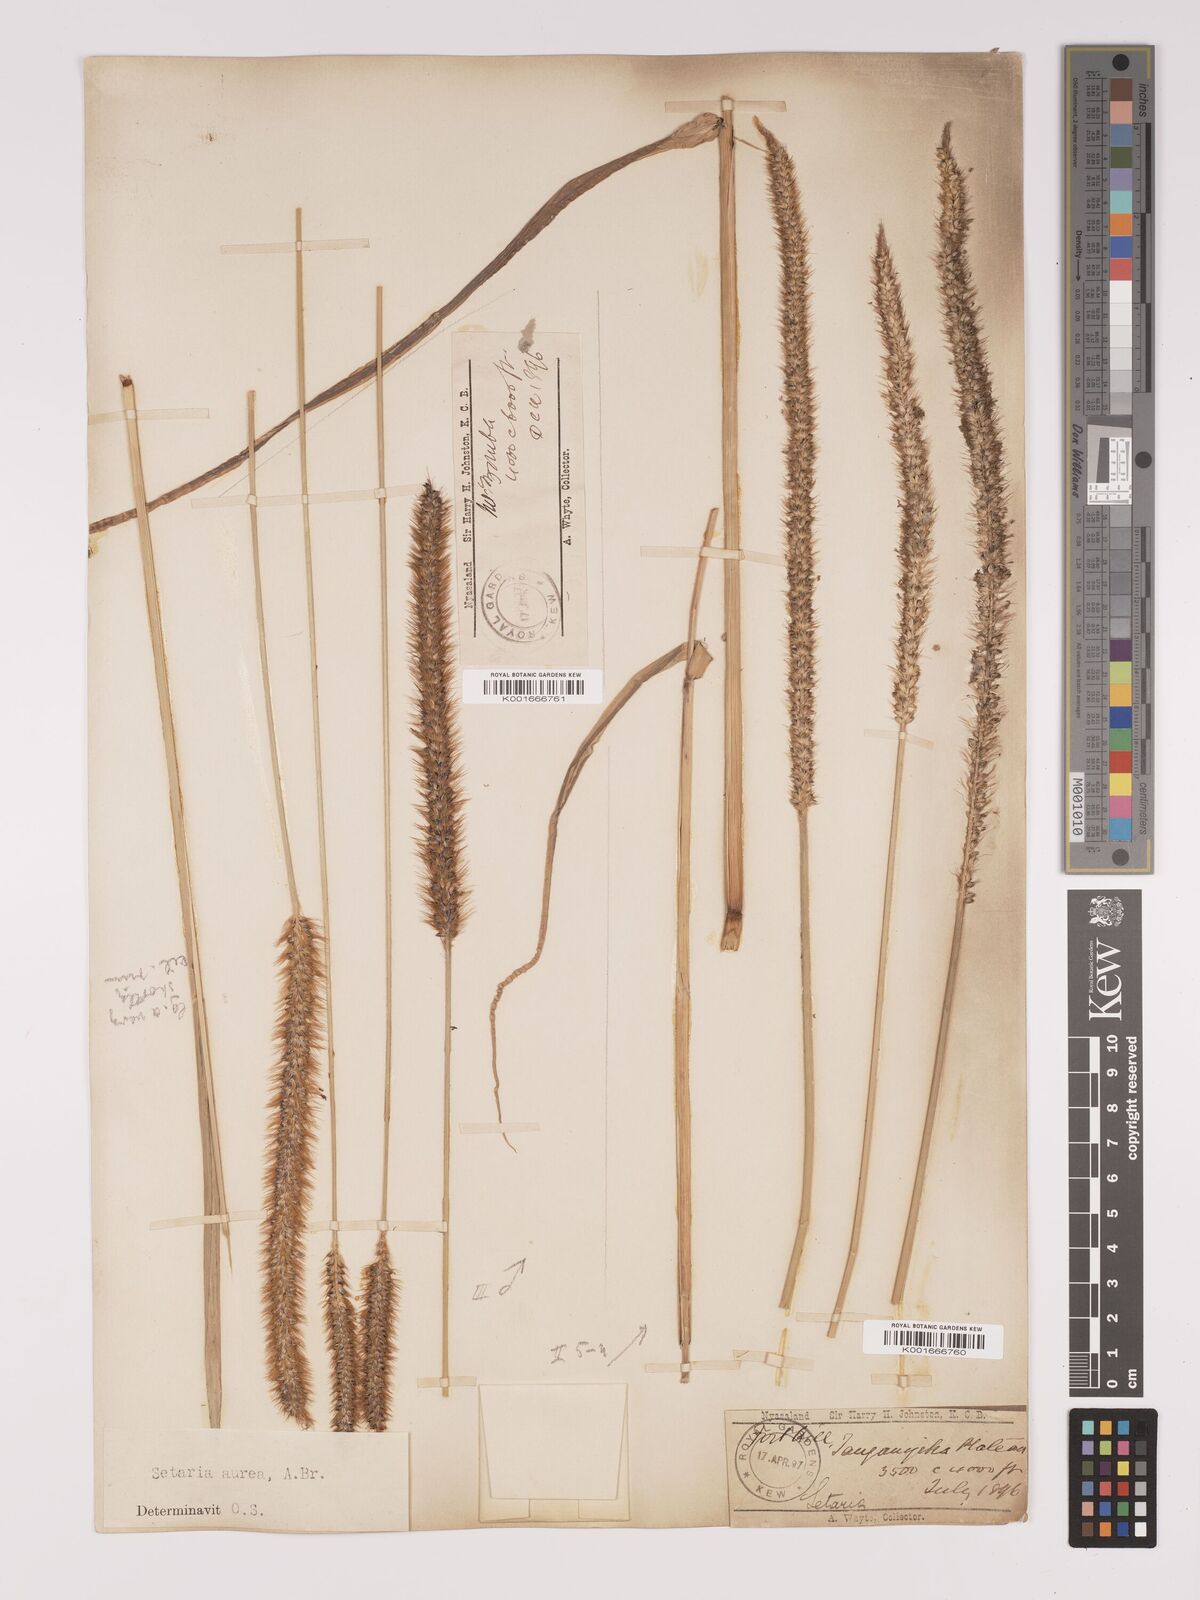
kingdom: Plantae
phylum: Tracheophyta
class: Liliopsida
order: Poales
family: Poaceae
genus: Setaria
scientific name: Setaria sphacelata
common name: African bristlegrass
